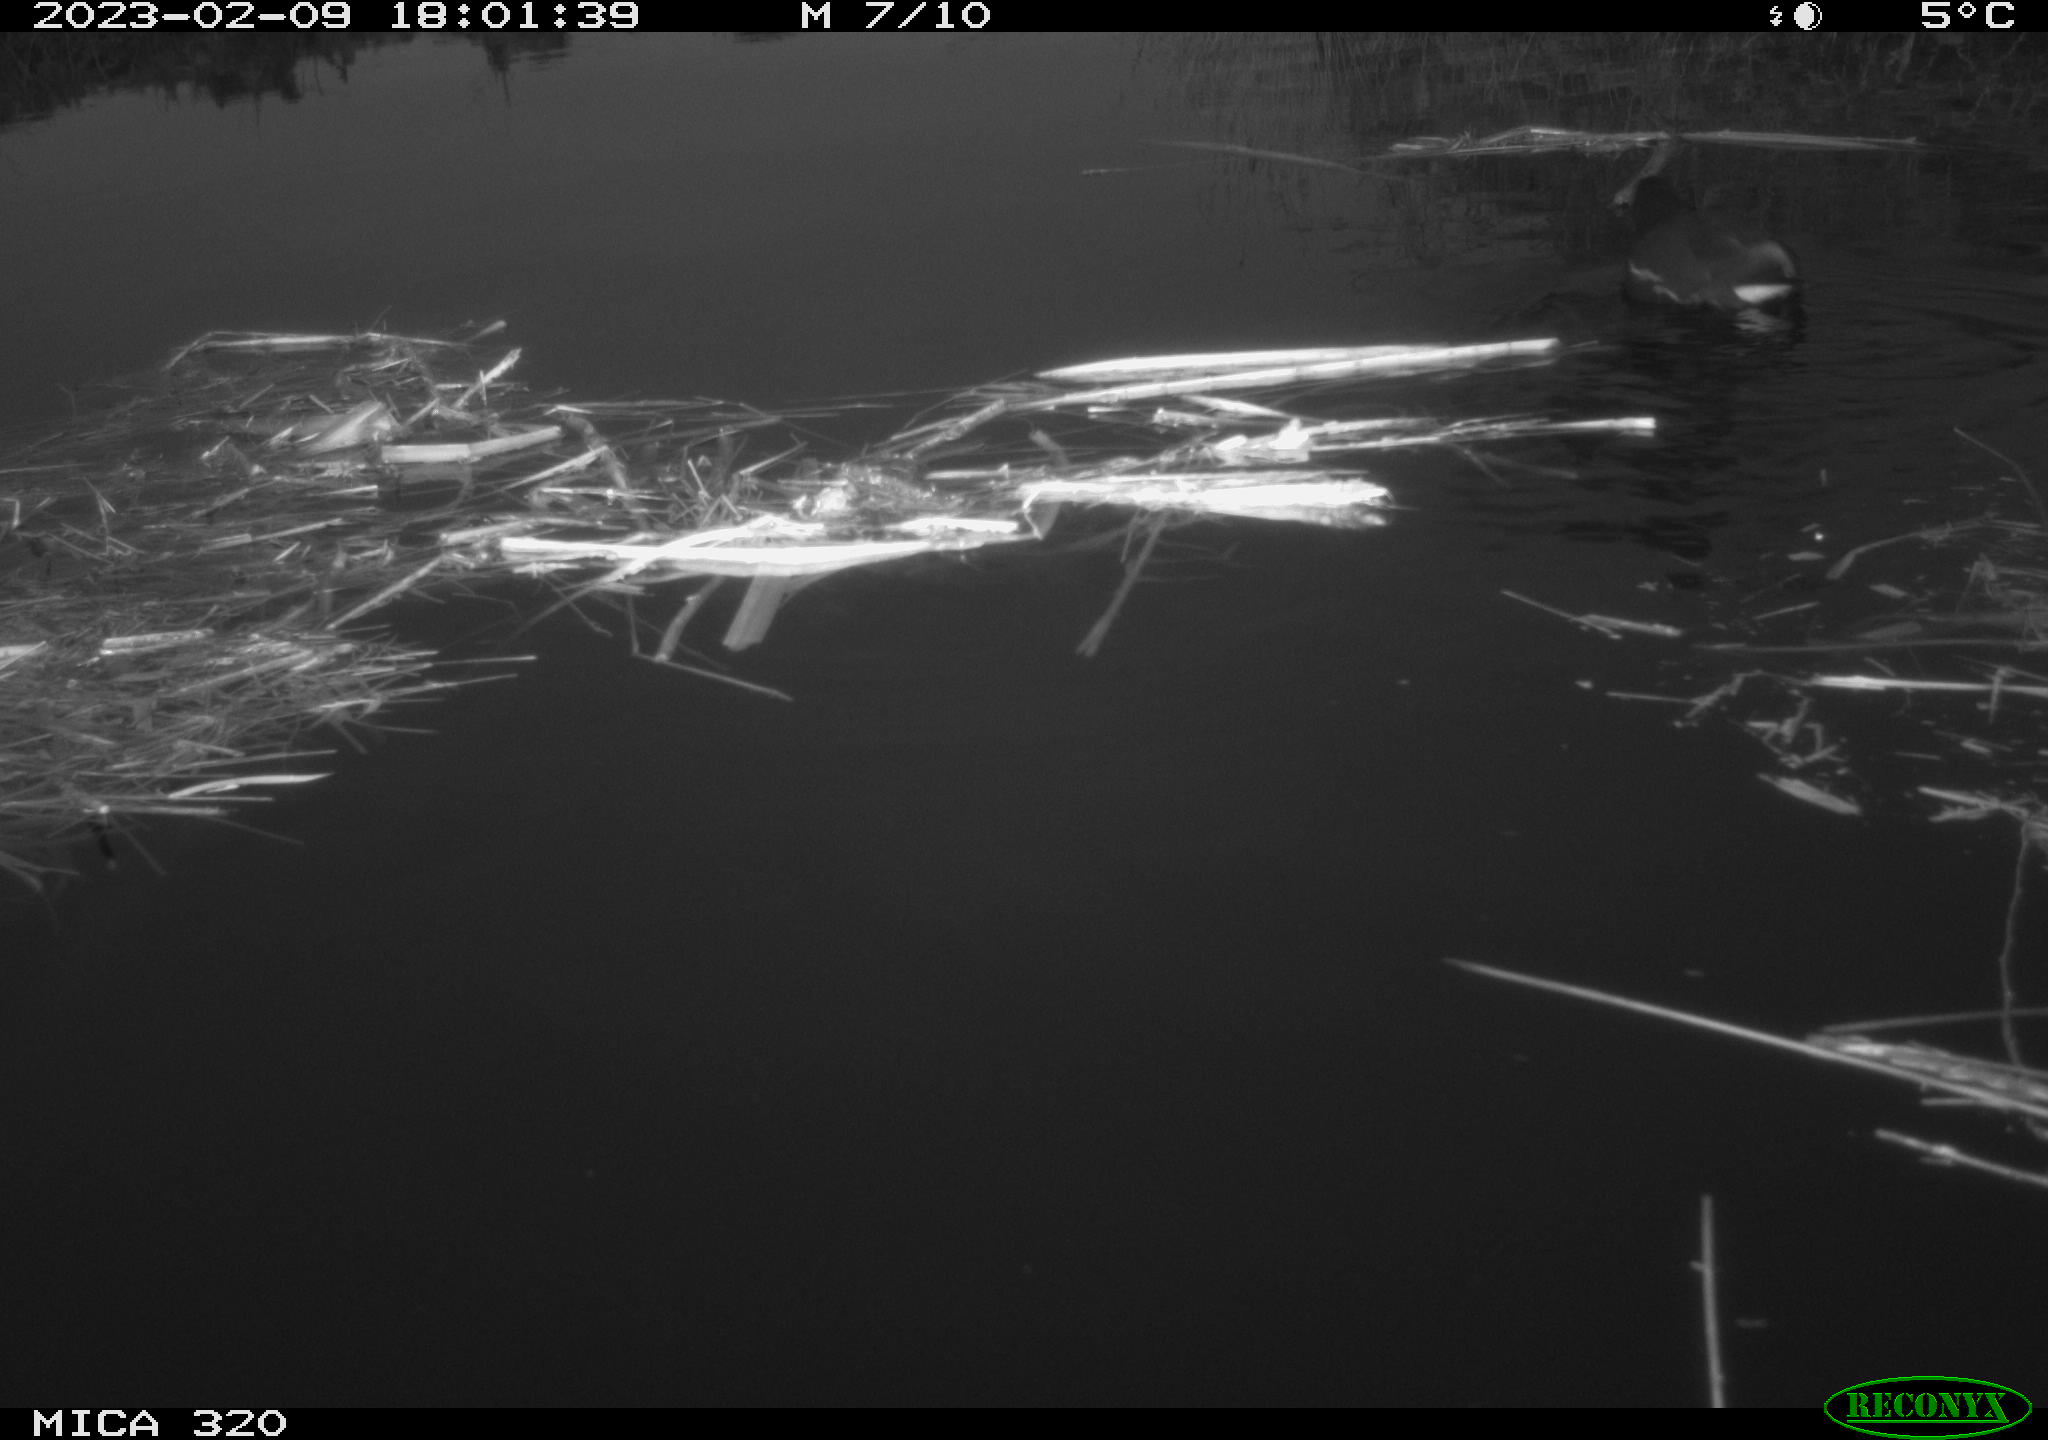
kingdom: Animalia
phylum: Chordata
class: Aves
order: Gruiformes
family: Rallidae
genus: Gallinula
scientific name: Gallinula chloropus
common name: Common moorhen
